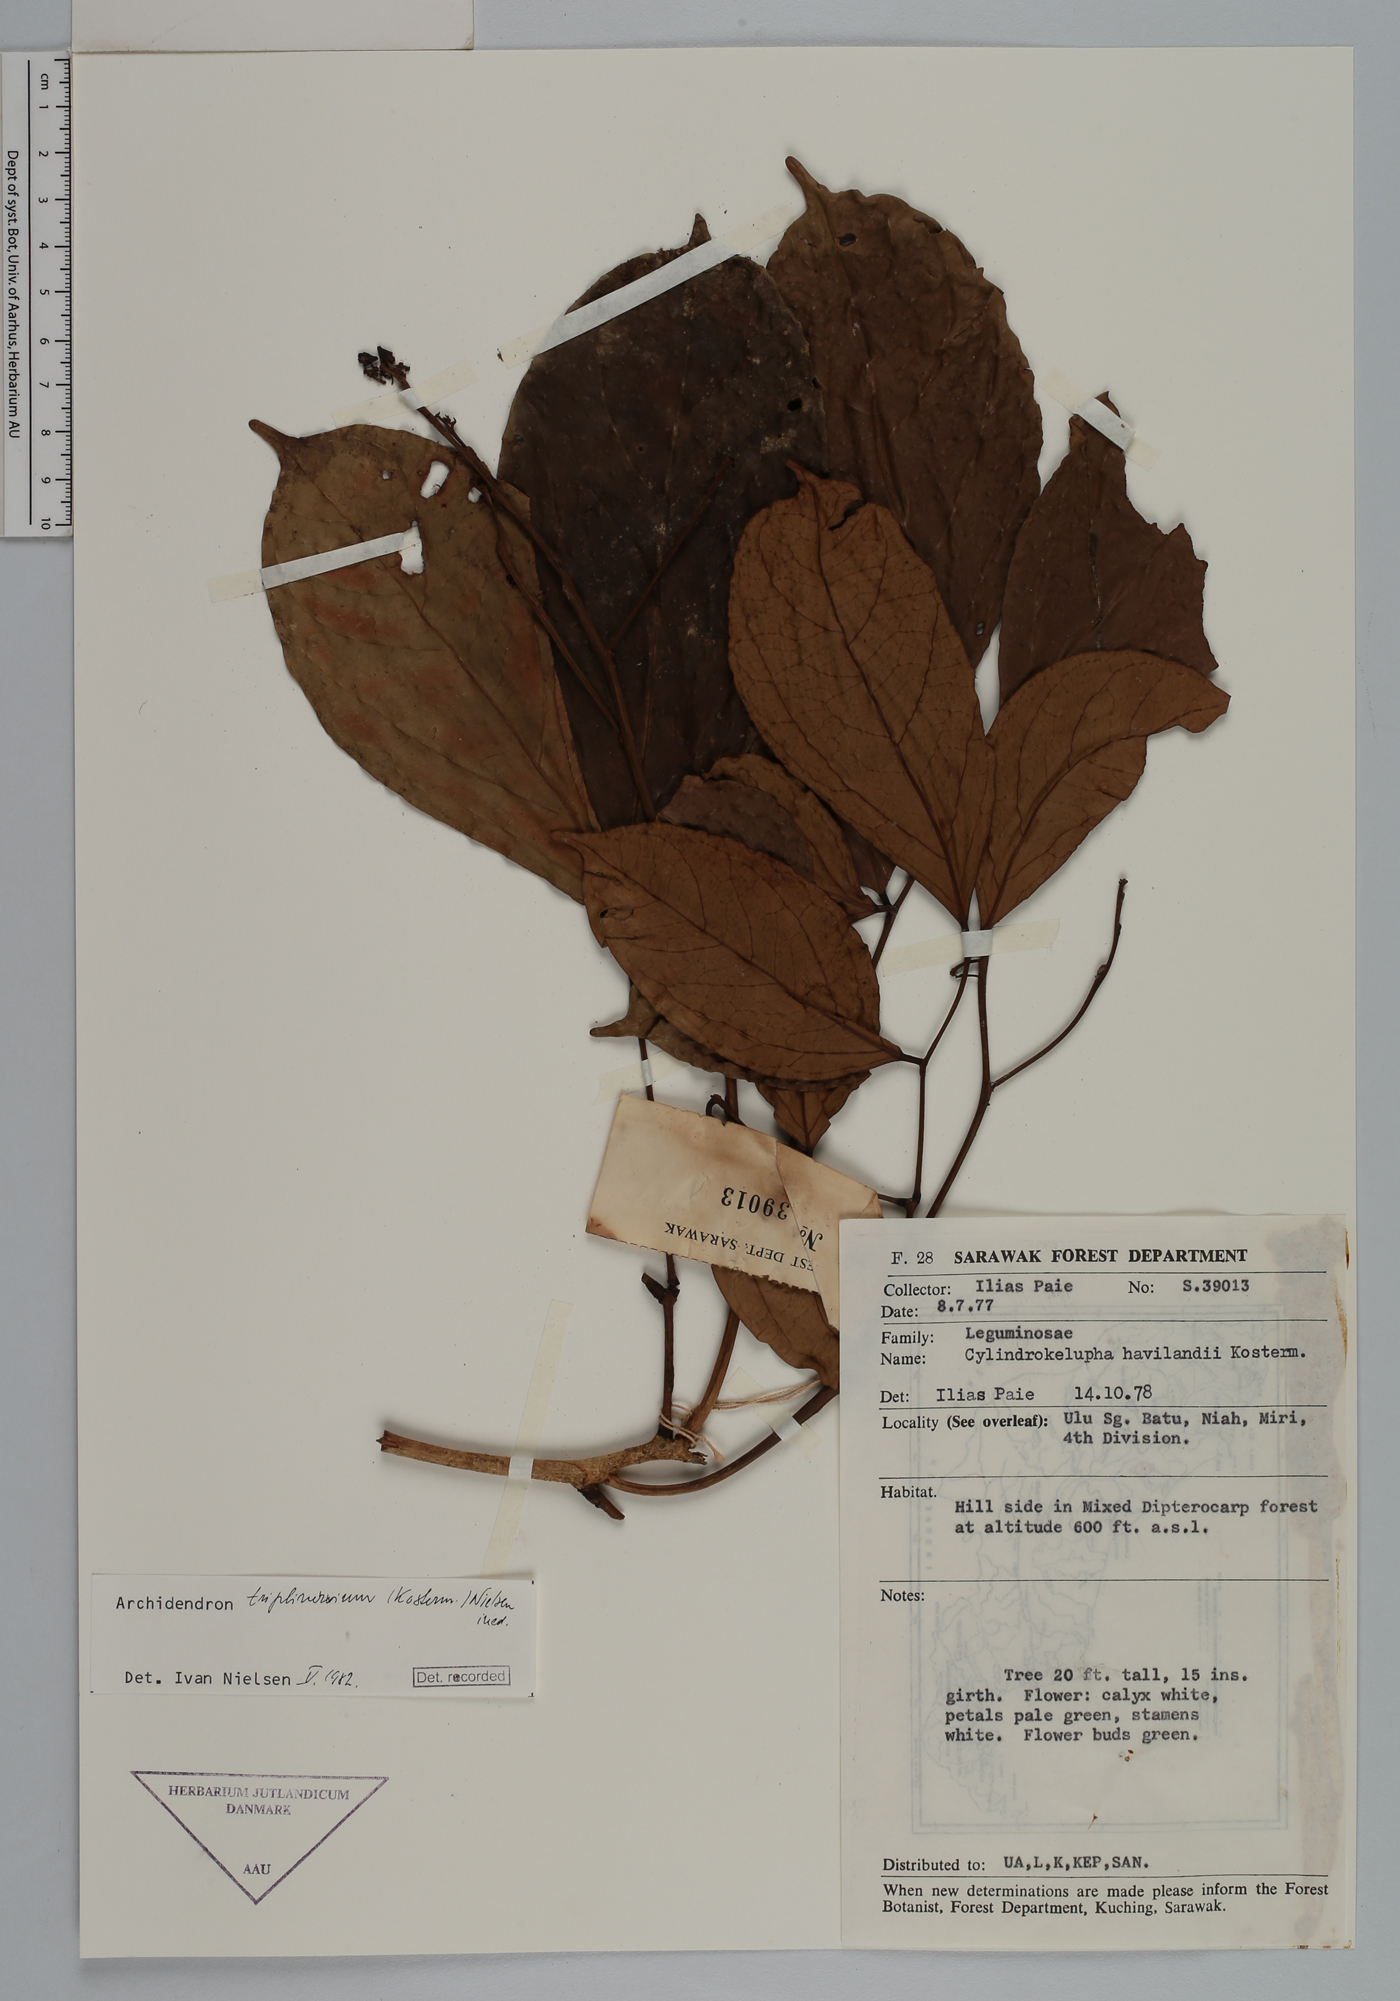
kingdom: Plantae
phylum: Tracheophyta
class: Magnoliopsida
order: Fabales
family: Fabaceae
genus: Archidendron
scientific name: Archidendron triplinervium
